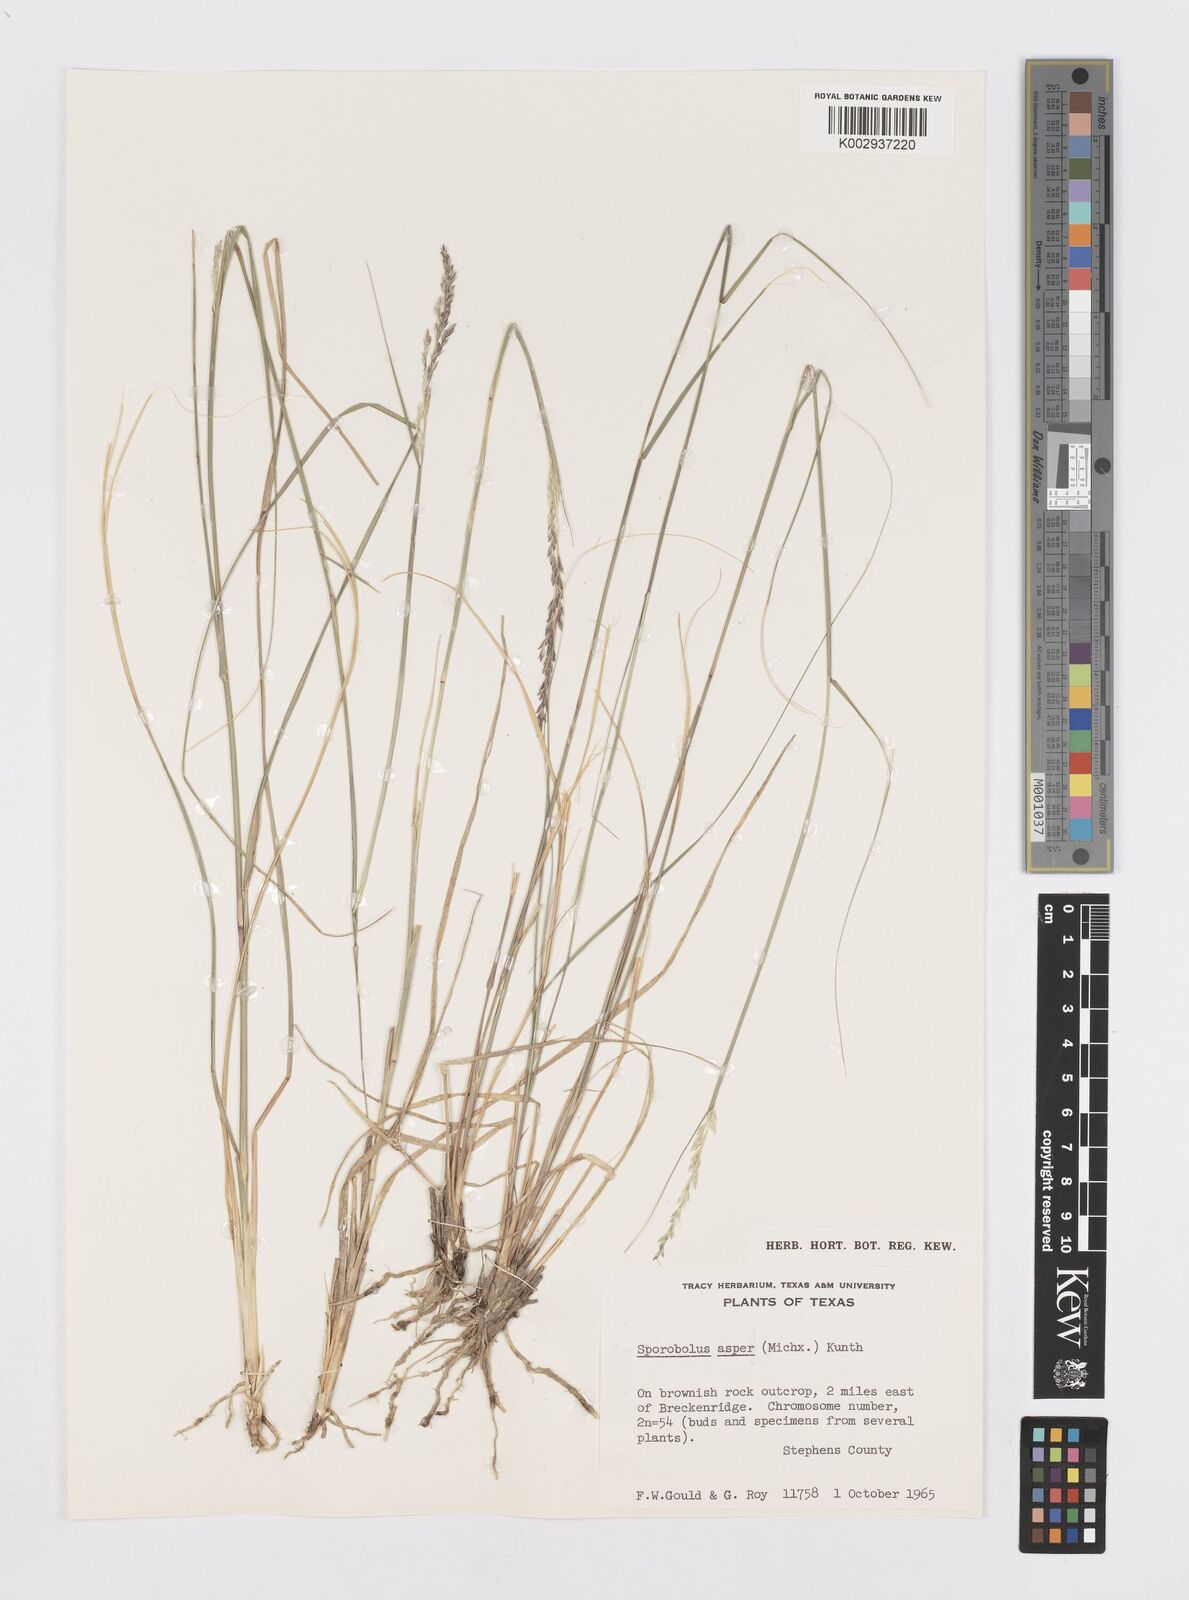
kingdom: Plantae
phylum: Tracheophyta
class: Liliopsida
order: Poales
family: Poaceae
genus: Sporobolus
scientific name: Sporobolus compositus
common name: Rough dropseed
